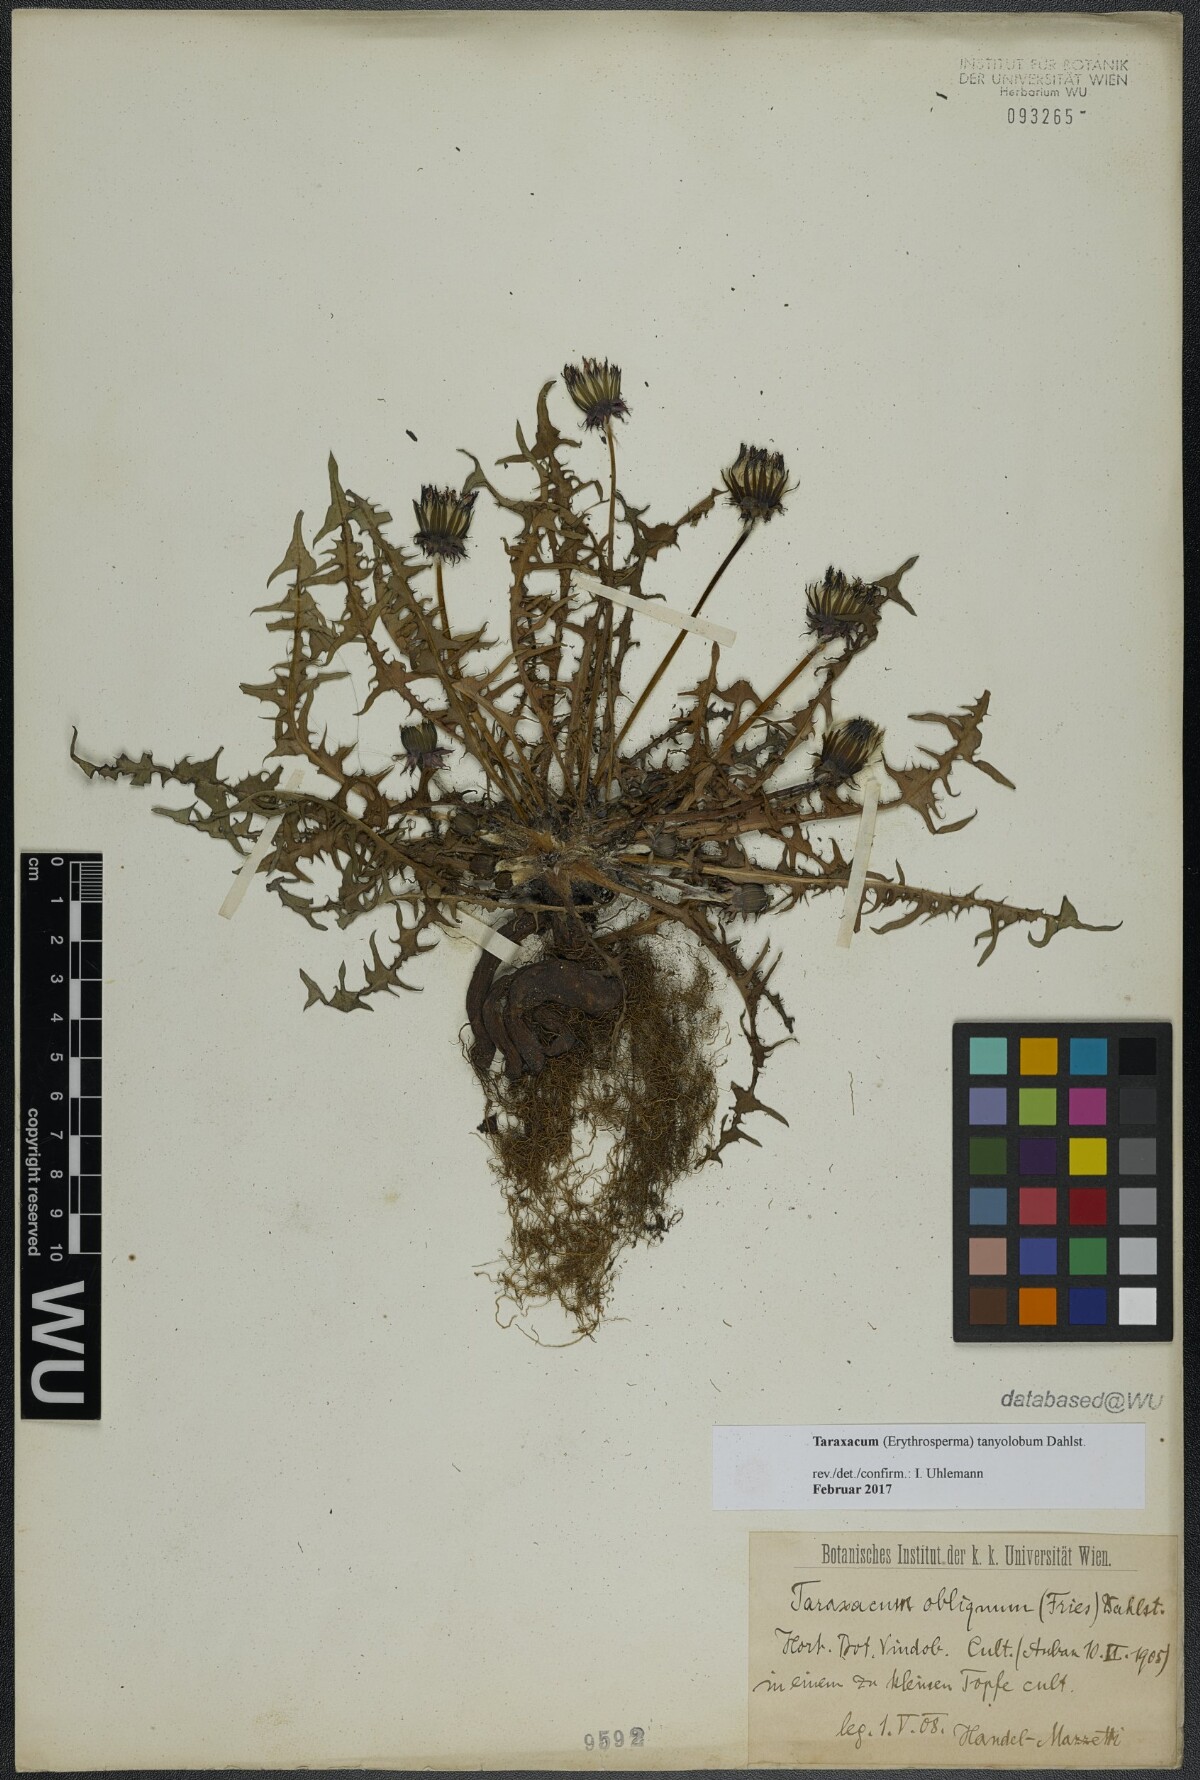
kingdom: Plantae
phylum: Tracheophyta
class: Magnoliopsida
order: Asterales
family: Asteraceae
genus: Taraxacum
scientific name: Taraxacum tanyolobum
